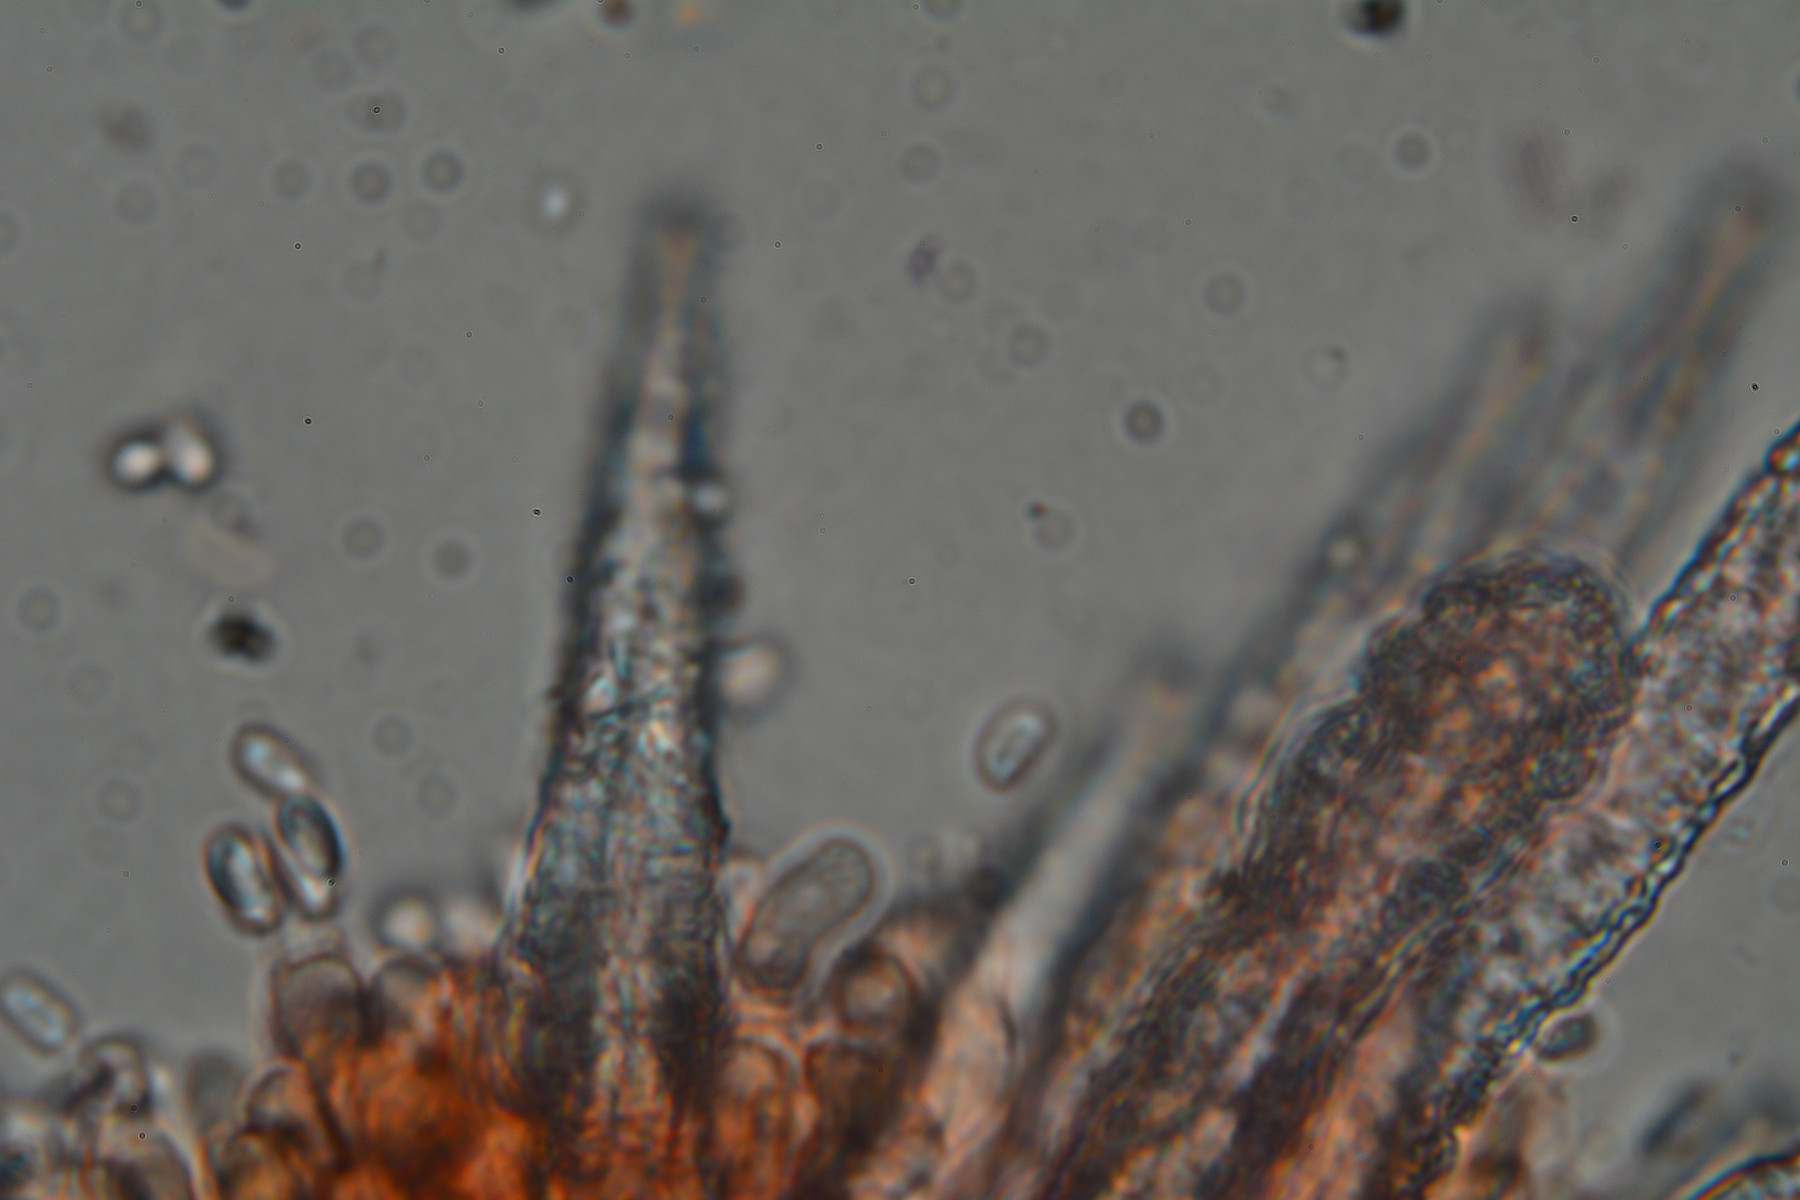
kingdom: Fungi
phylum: Basidiomycota
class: Agaricomycetes
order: Polyporales
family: Meruliaceae
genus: Scopuloides
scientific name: Scopuloides rimosa
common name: dughinde
